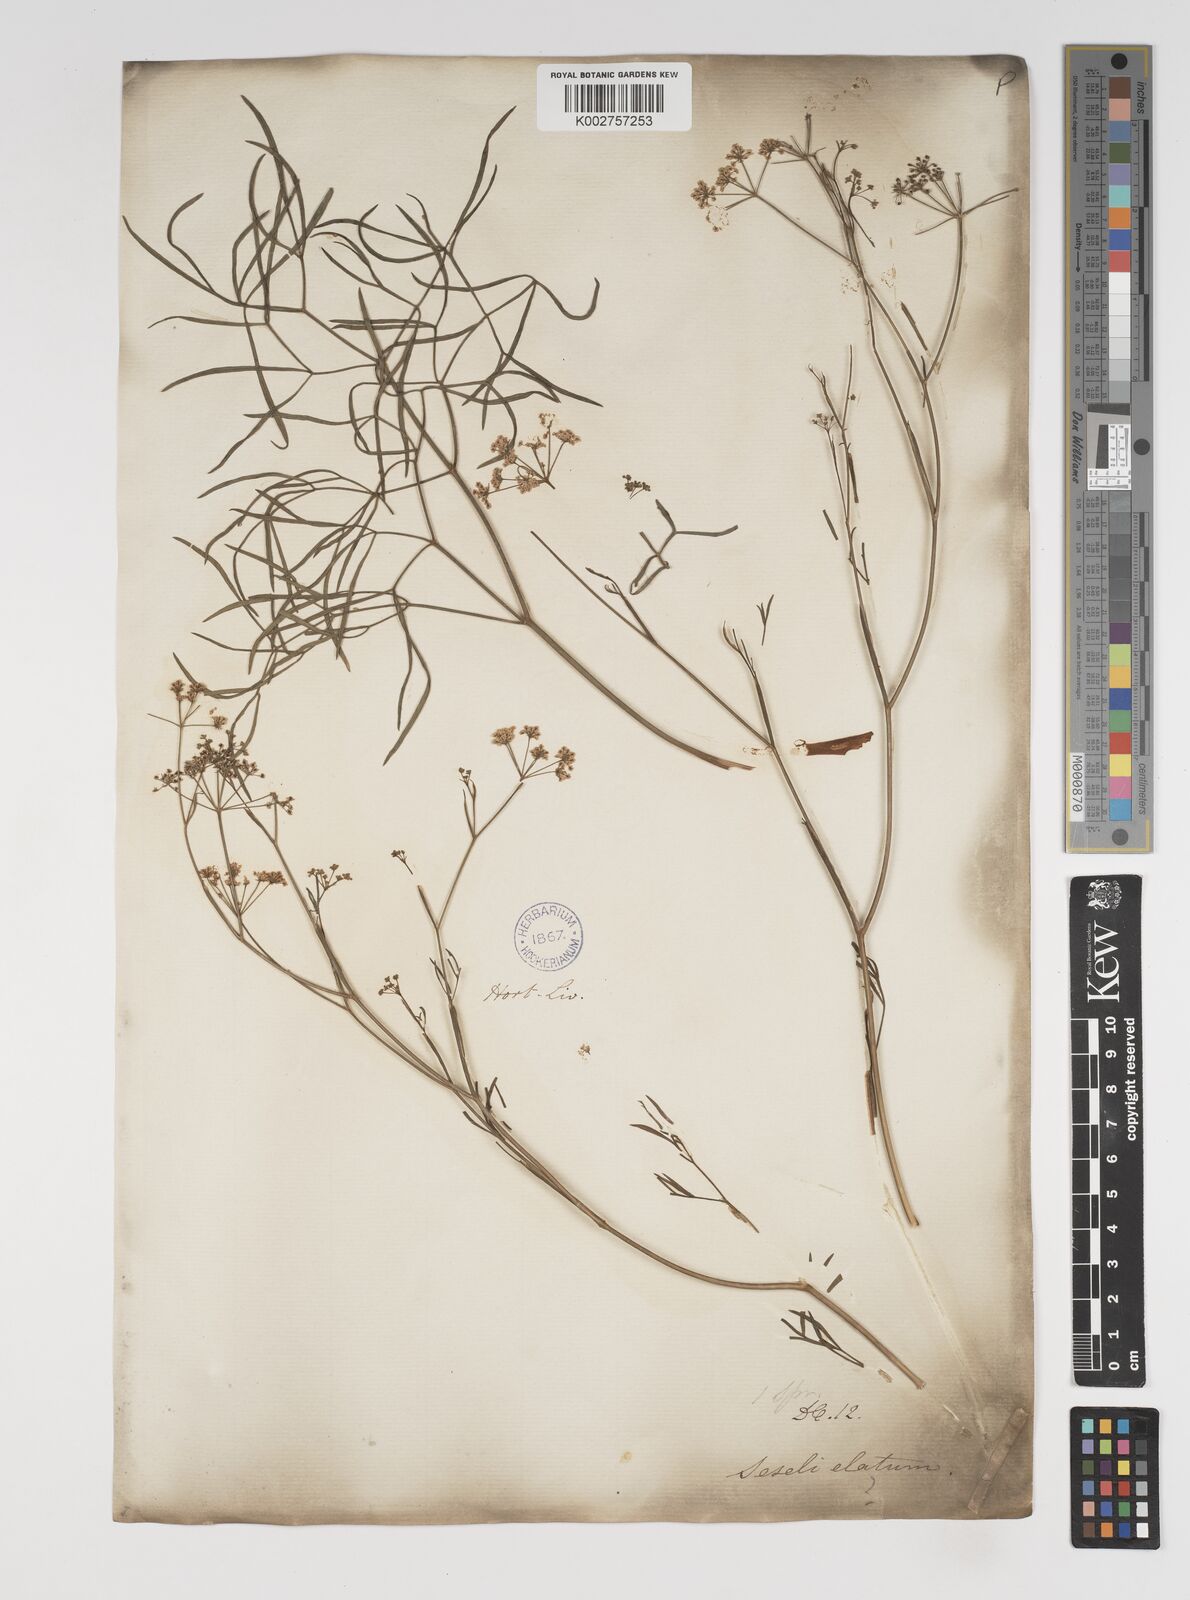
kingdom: Plantae
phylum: Tracheophyta
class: Magnoliopsida
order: Apiales
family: Apiaceae
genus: Seseli
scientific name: Seseli pallasii
